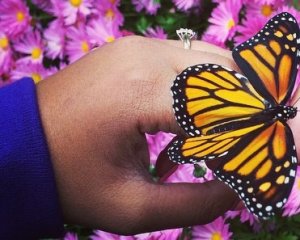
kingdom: Animalia
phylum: Arthropoda
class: Insecta
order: Lepidoptera
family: Nymphalidae
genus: Danaus
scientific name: Danaus plexippus
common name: Monarch
